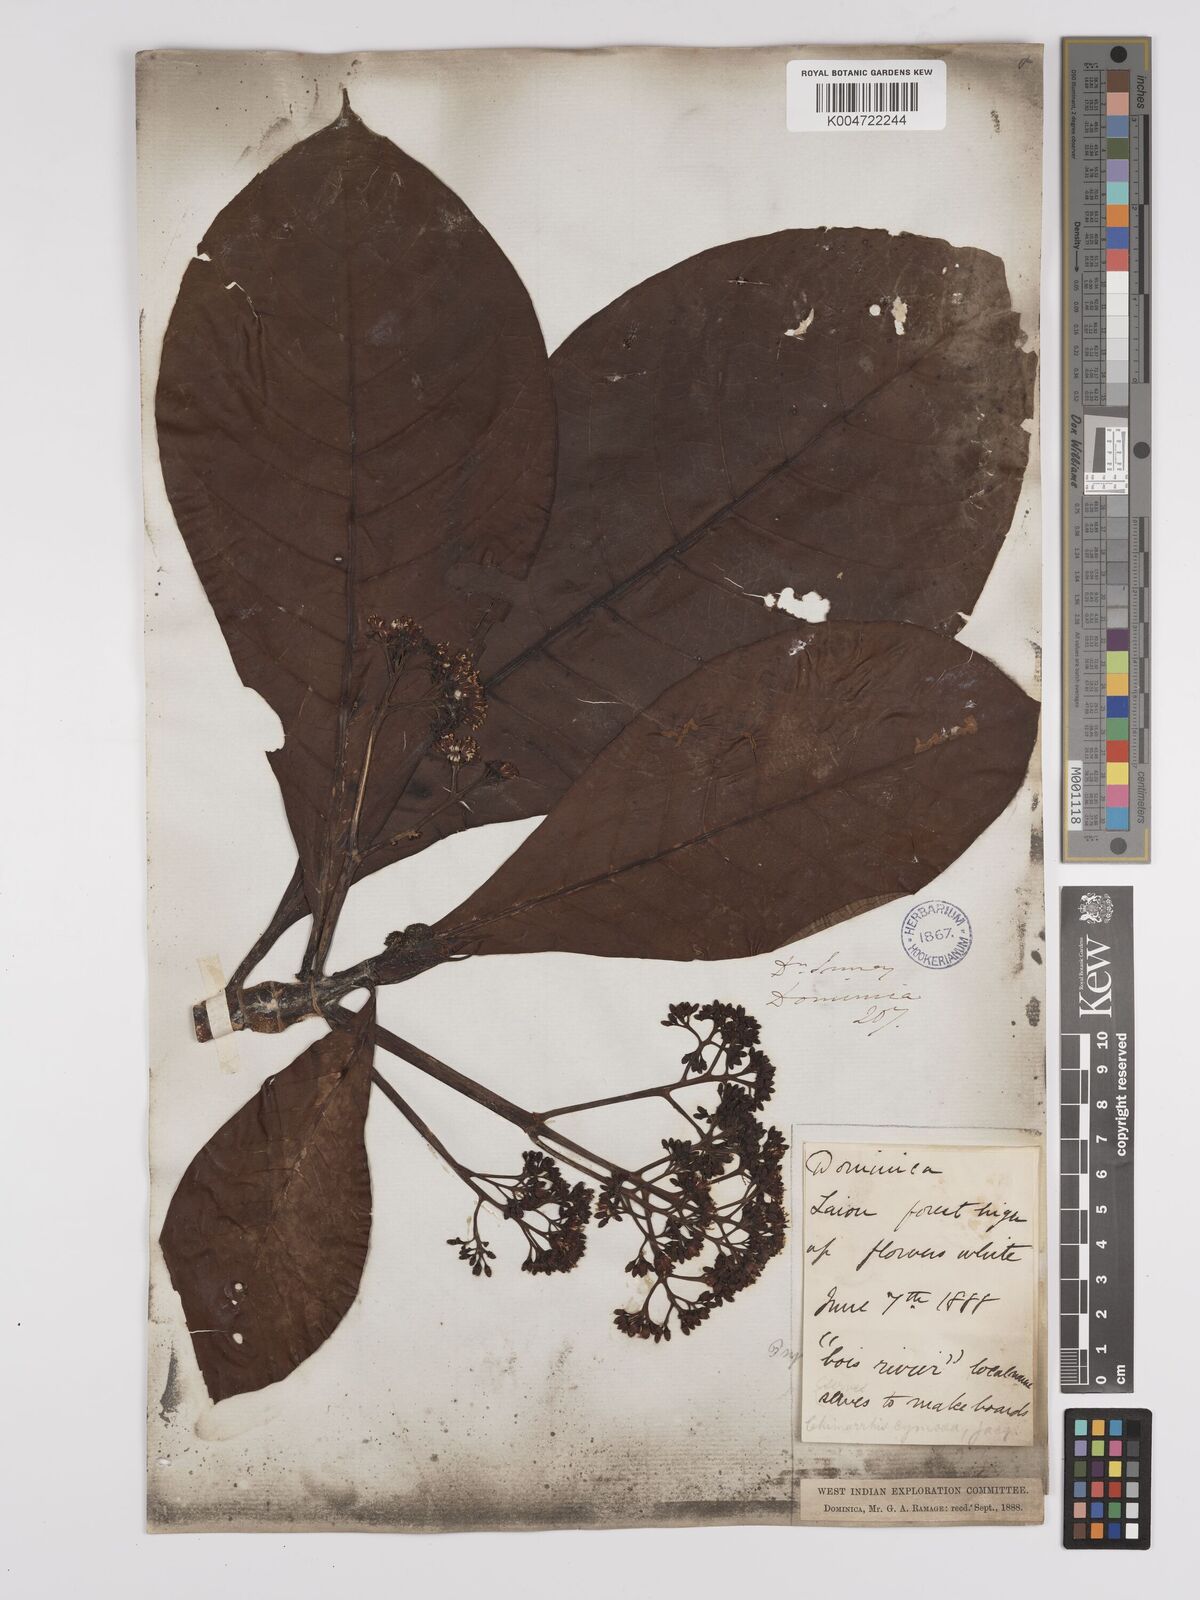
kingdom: Plantae
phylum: Tracheophyta
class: Magnoliopsida
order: Gentianales
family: Rubiaceae
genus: Chimarrhis
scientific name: Chimarrhis cymosa
